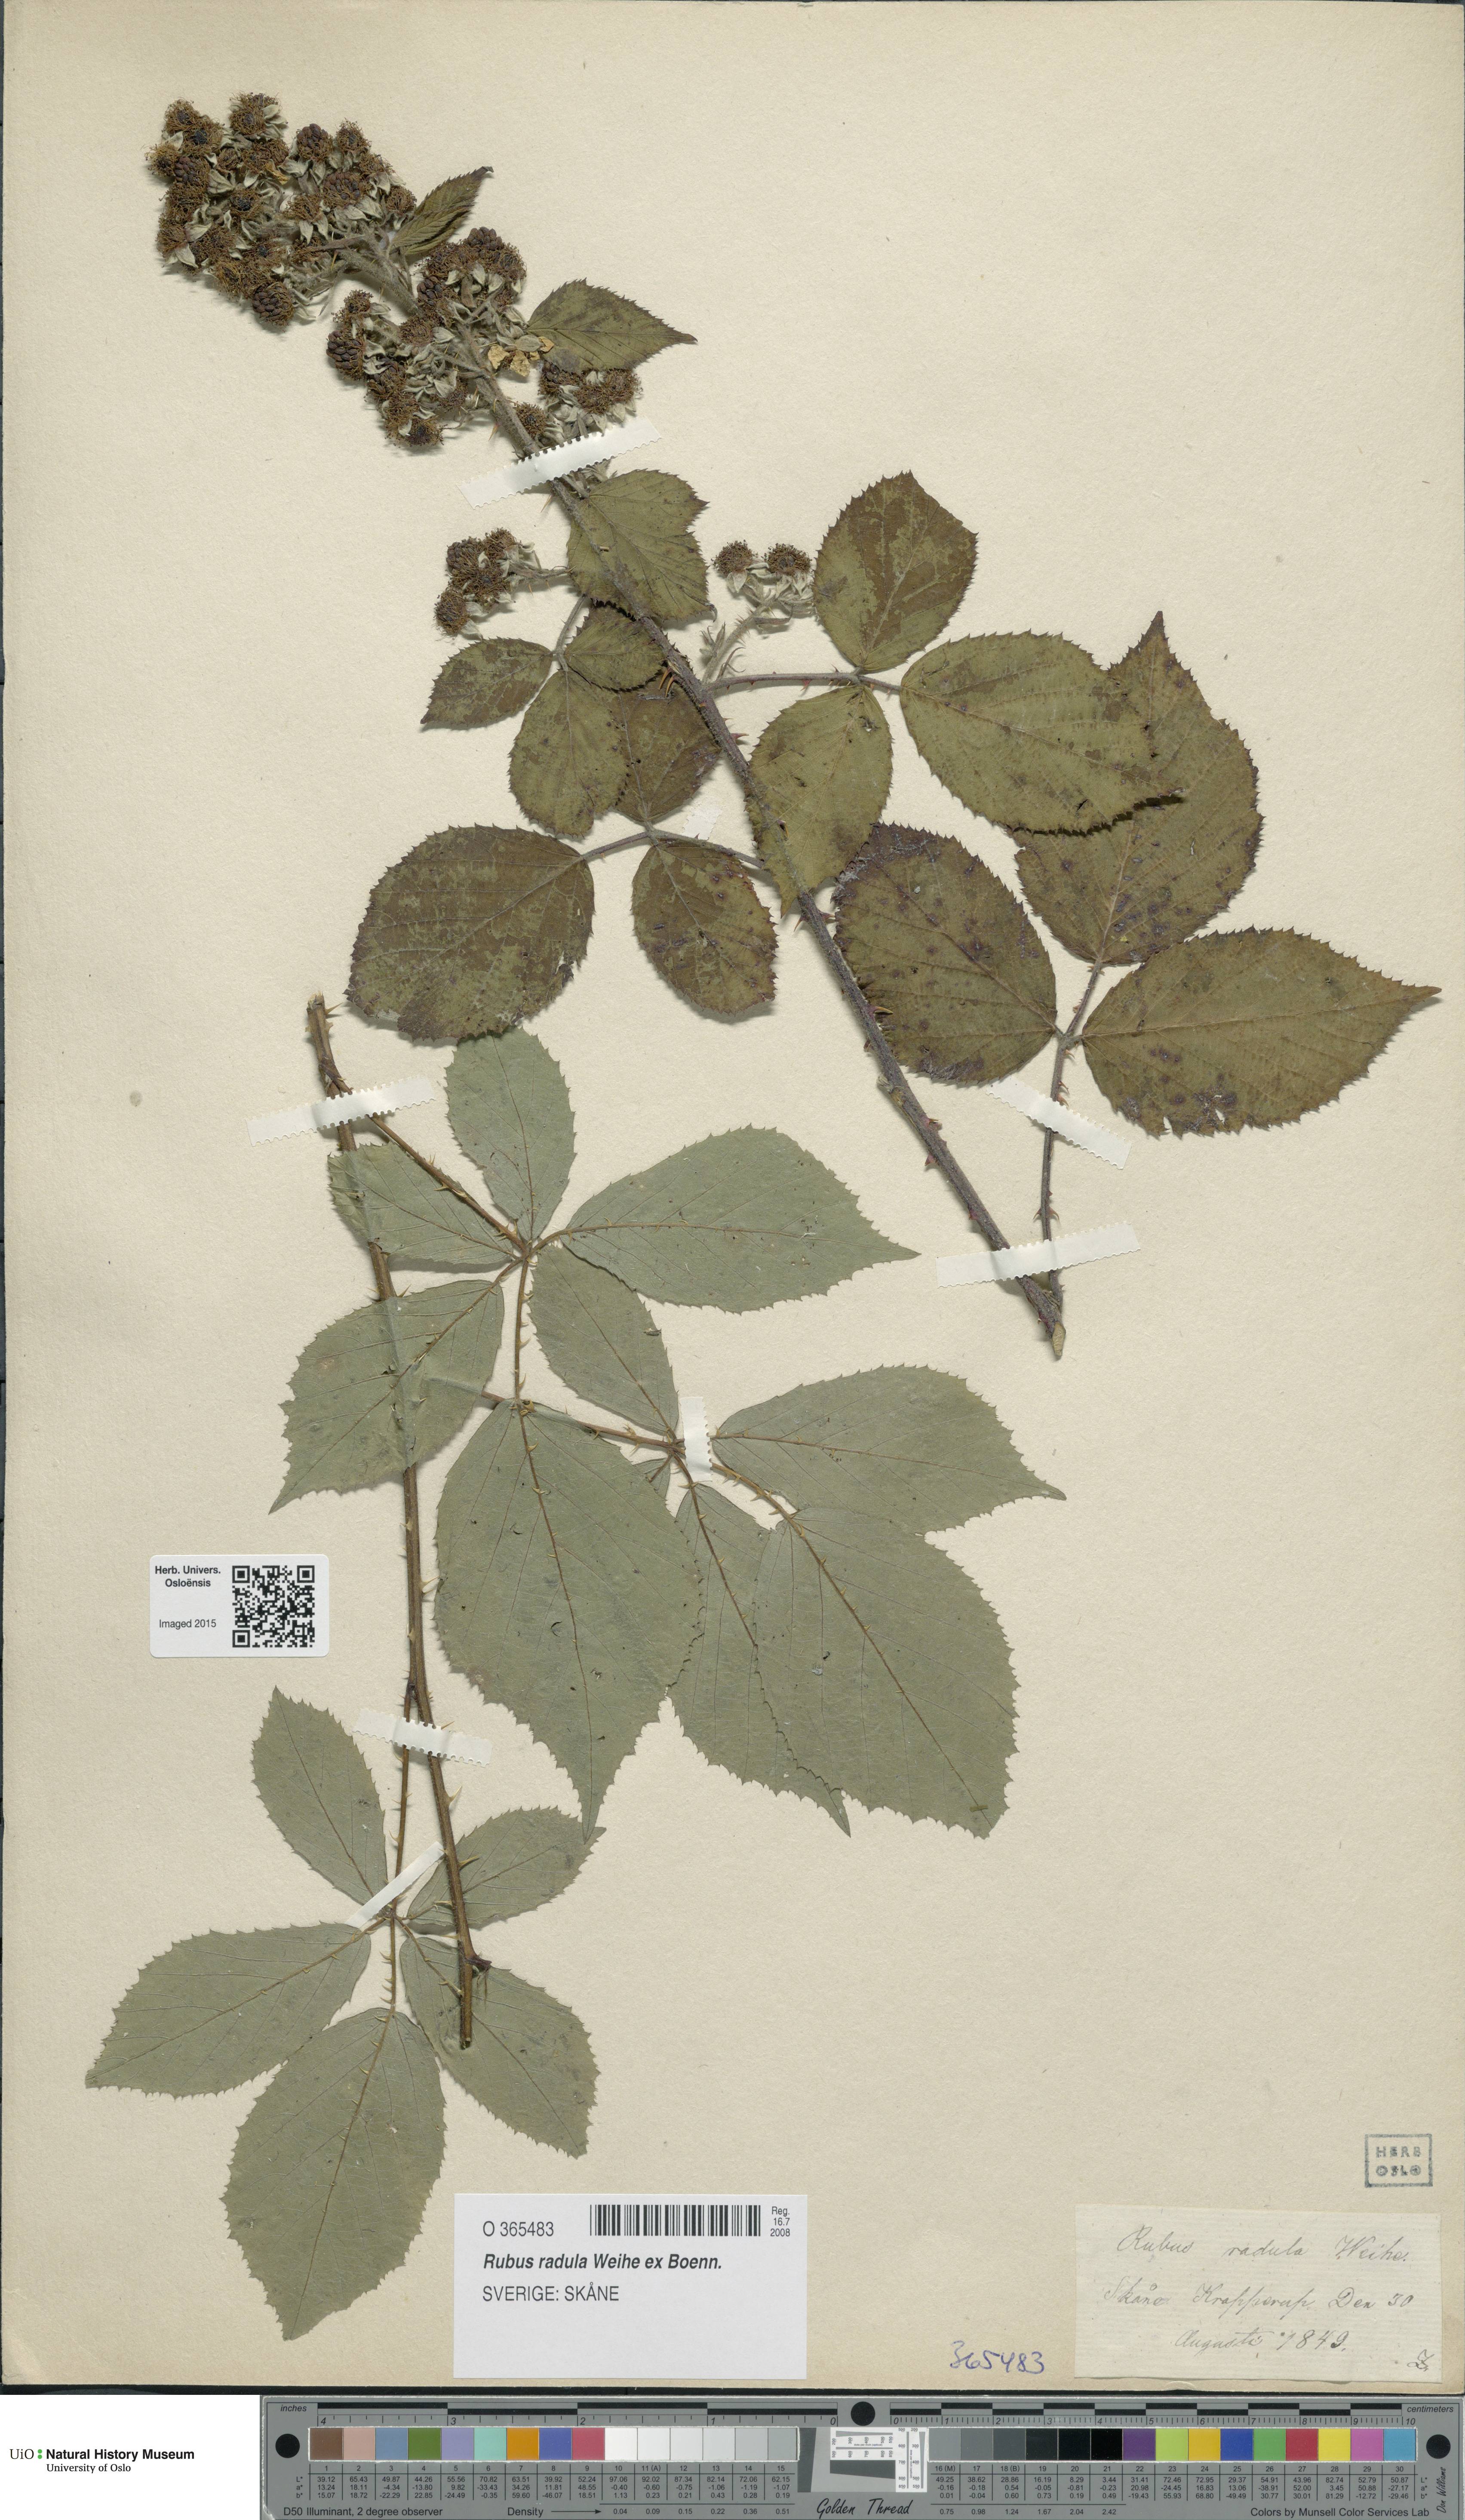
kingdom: Plantae
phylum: Tracheophyta
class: Magnoliopsida
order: Rosales
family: Rosaceae
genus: Rubus
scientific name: Rubus radula
